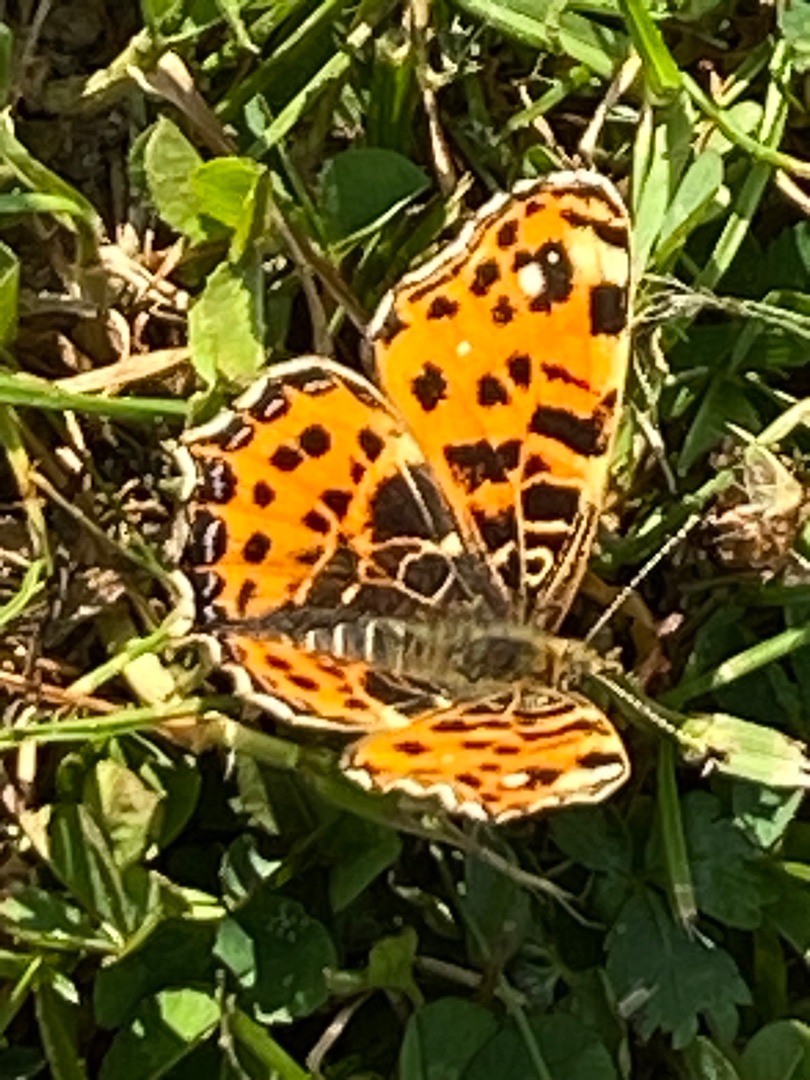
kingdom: Animalia
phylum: Arthropoda
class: Insecta
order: Lepidoptera
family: Nymphalidae
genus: Araschnia
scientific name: Araschnia levana
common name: Nældesommerfugl
